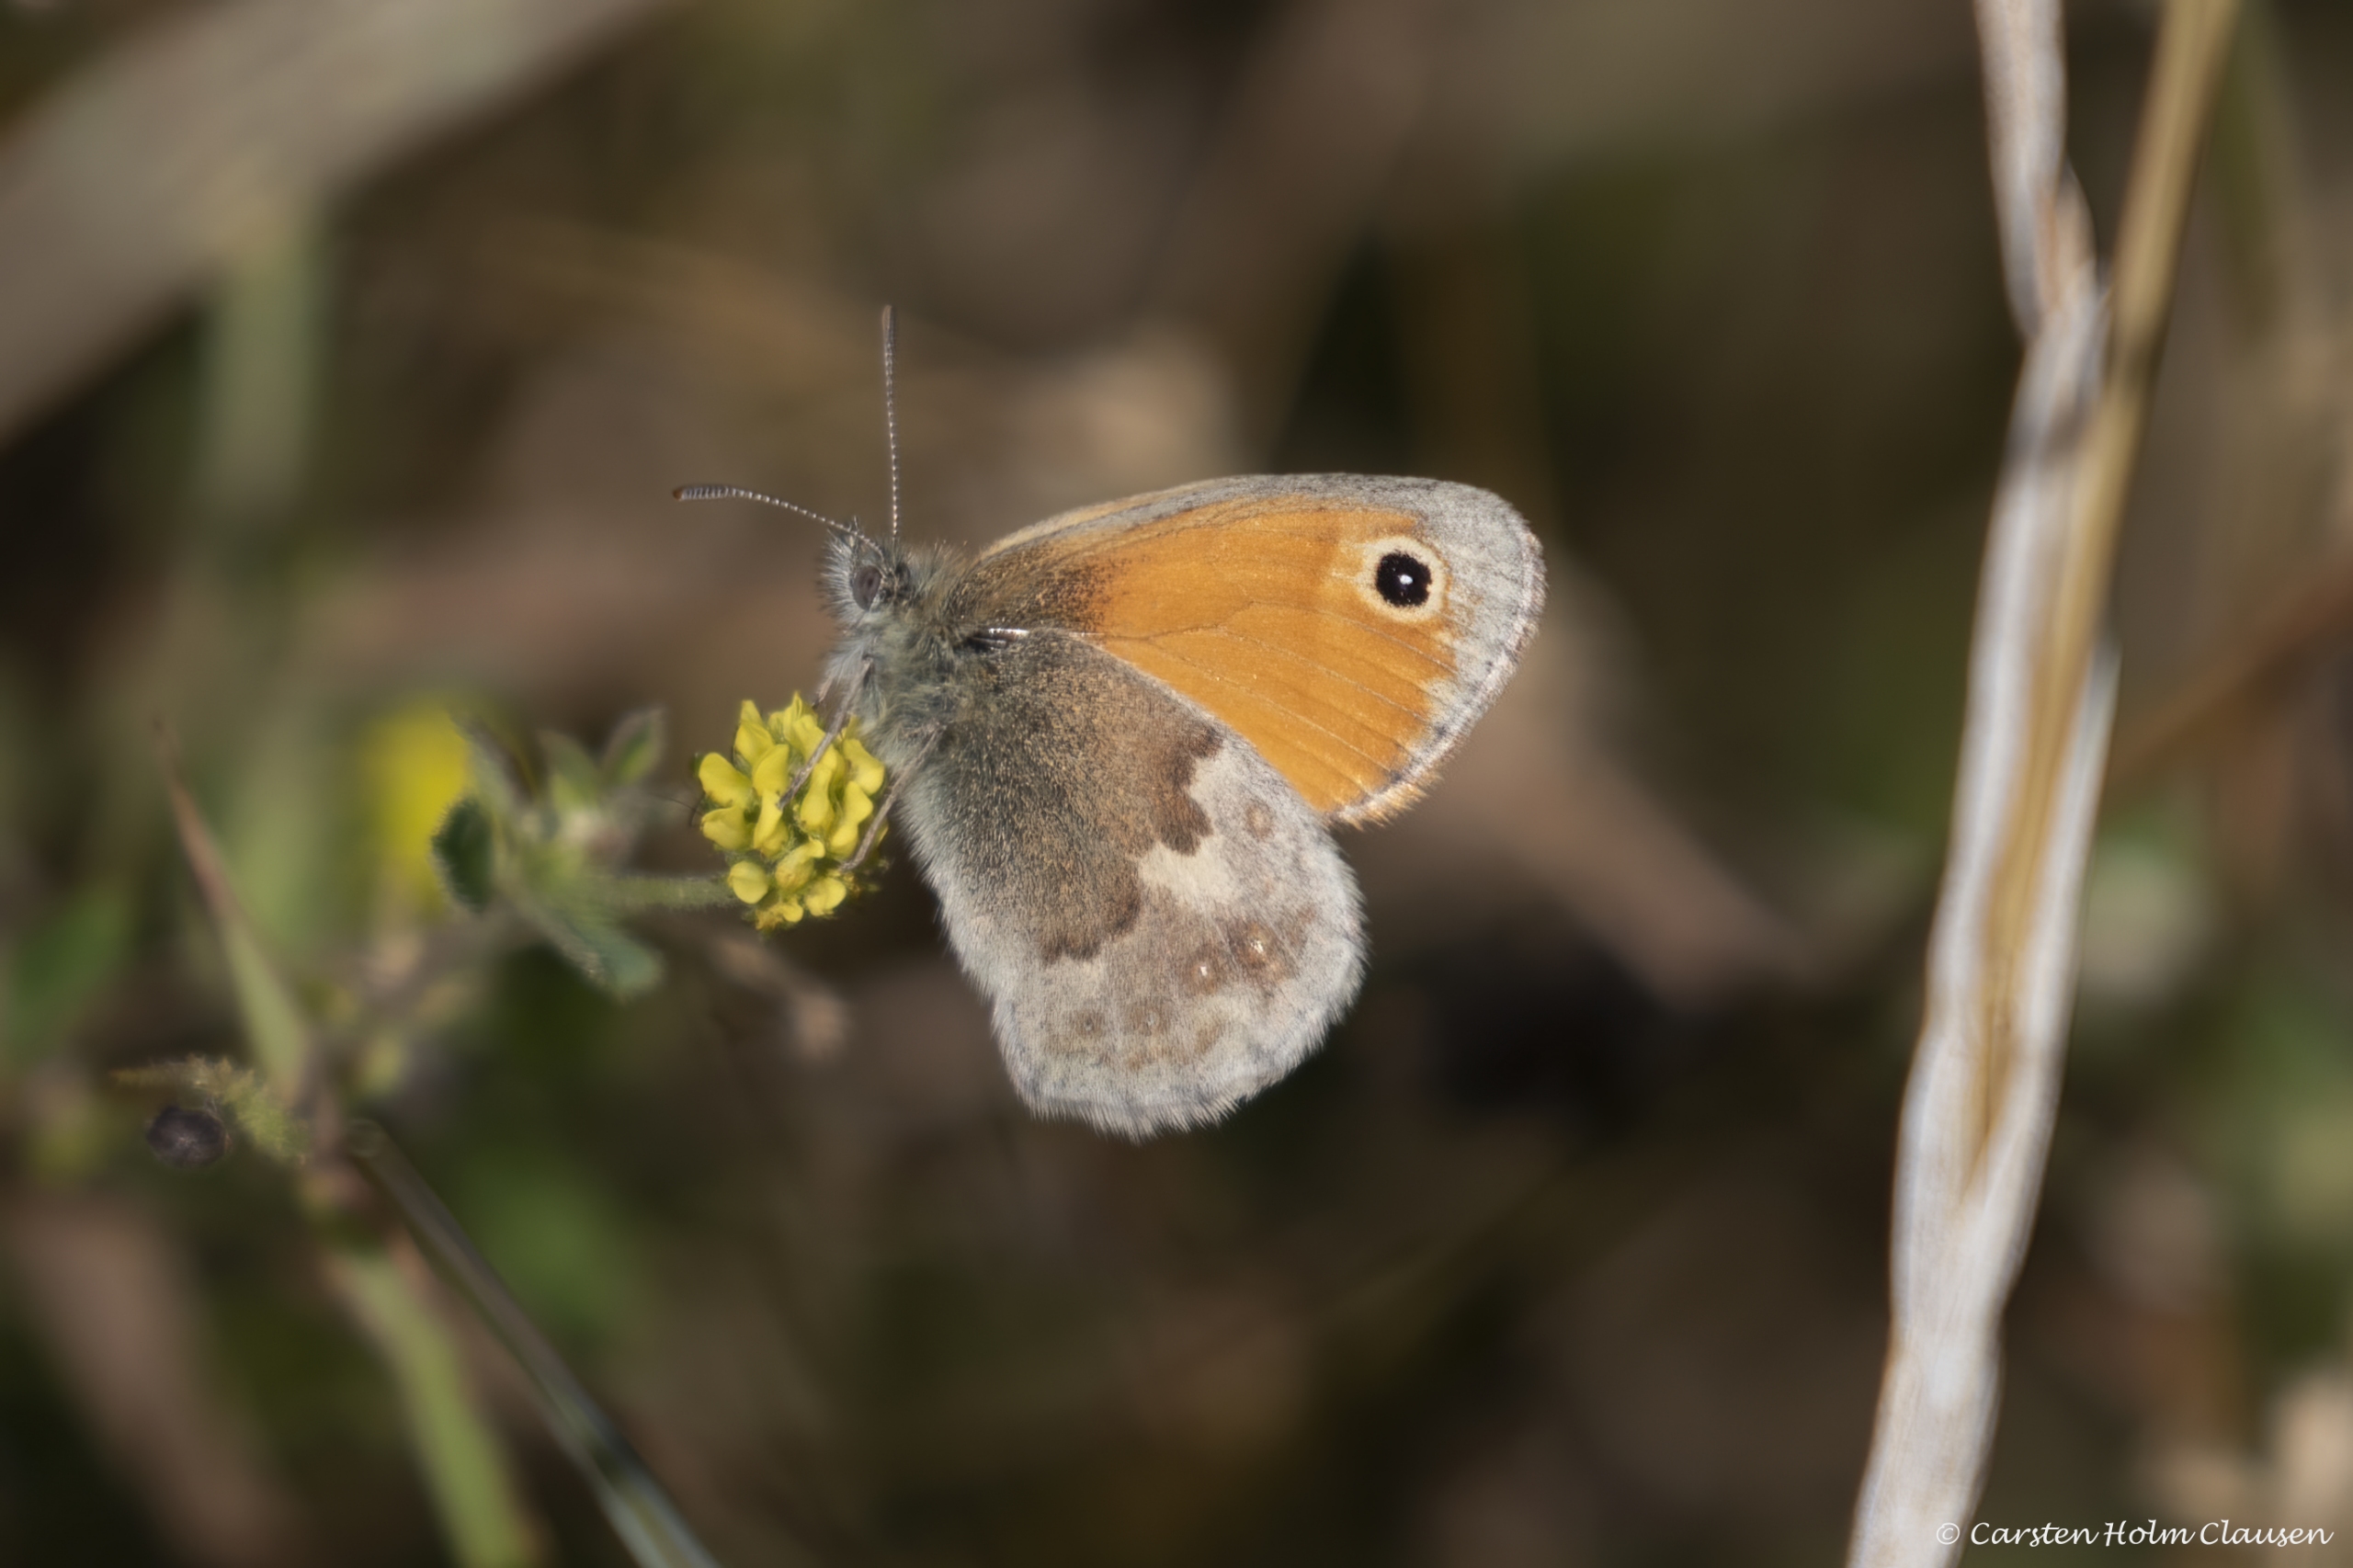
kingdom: Animalia
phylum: Arthropoda
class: Insecta
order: Lepidoptera
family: Nymphalidae
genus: Coenonympha
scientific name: Coenonympha pamphilus
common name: Okkergul randøje
